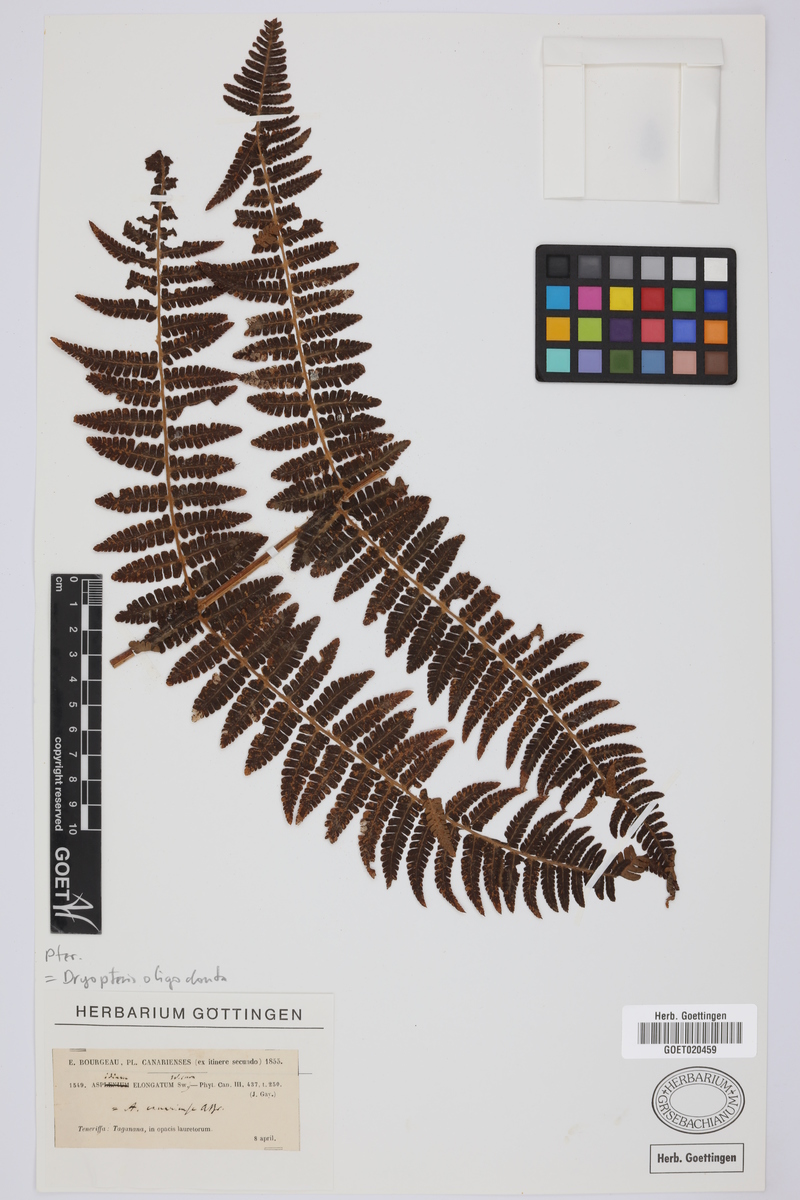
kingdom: Plantae
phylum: Tracheophyta
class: Polypodiopsida
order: Polypodiales
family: Dryopteridaceae
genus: Dryopteris
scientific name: Dryopteris oligodonta
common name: Canarian male-fern
